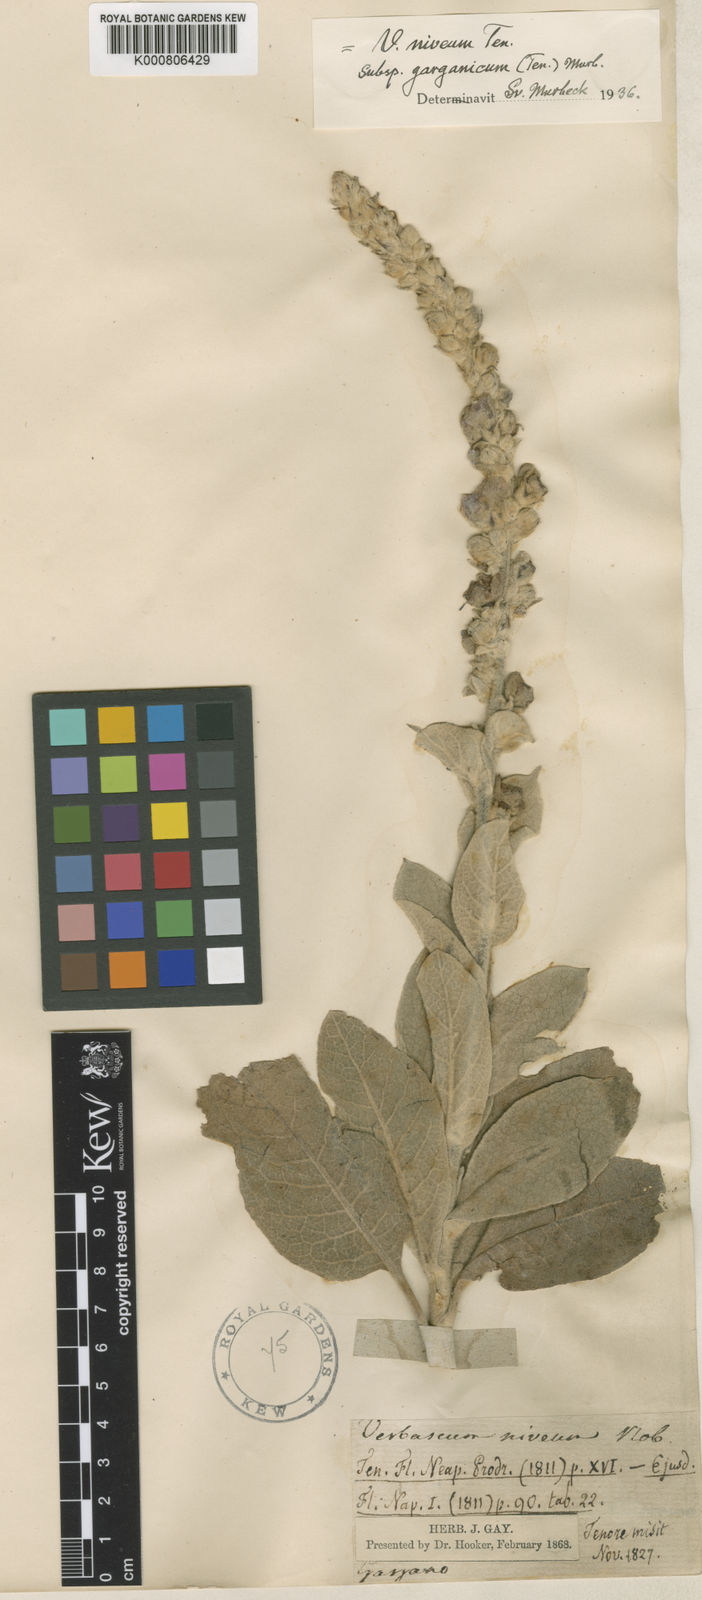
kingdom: Plantae
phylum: Tracheophyta
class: Magnoliopsida
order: Lamiales
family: Scrophulariaceae
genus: Verbascum
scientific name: Verbascum niveum
